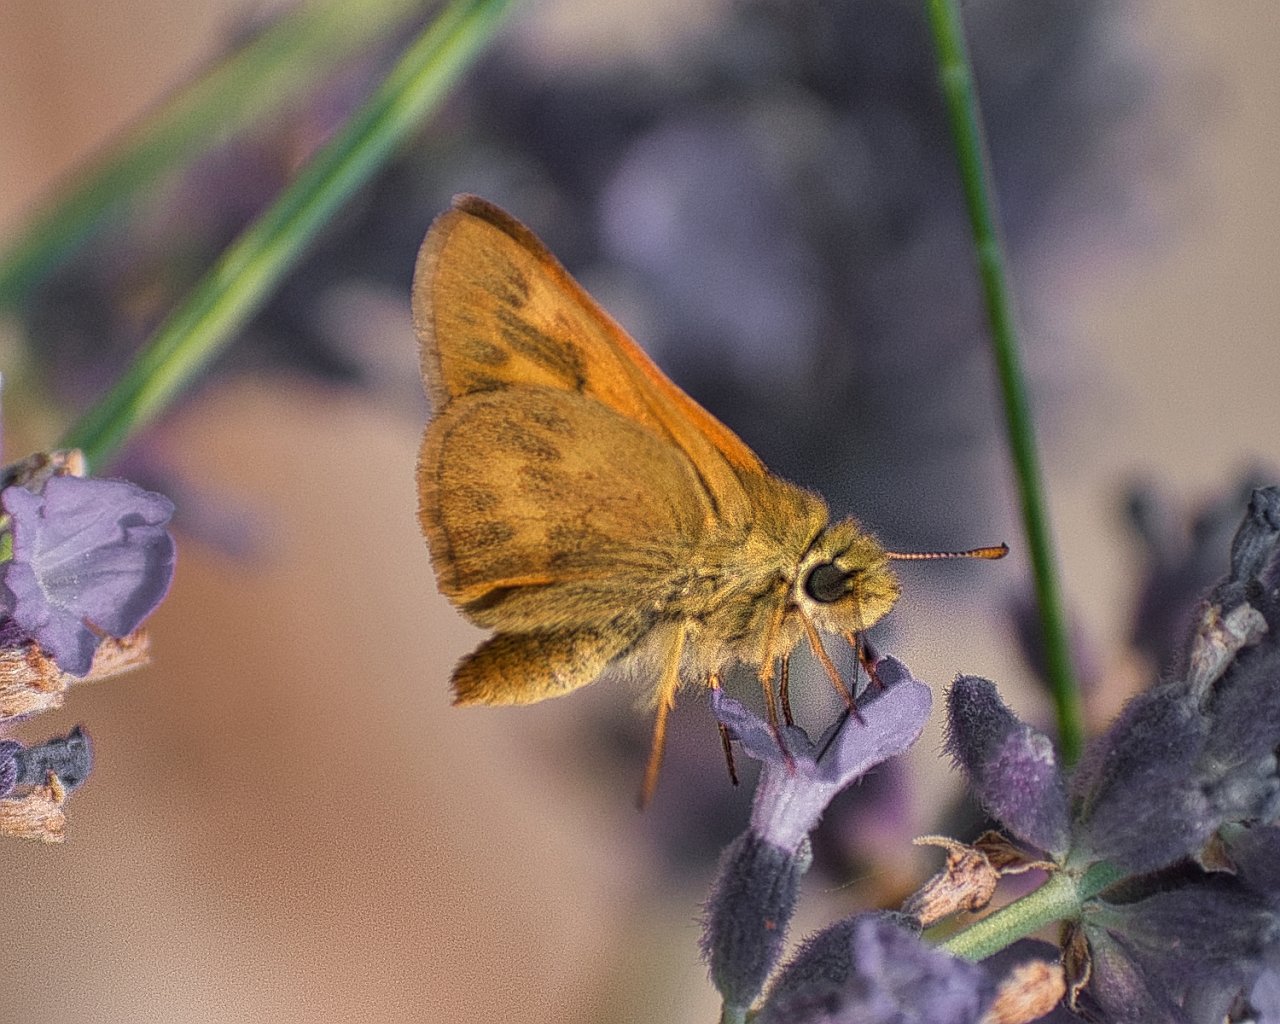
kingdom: Animalia
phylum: Arthropoda
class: Insecta
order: Lepidoptera
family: Hesperiidae
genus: Ochlodes
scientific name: Ochlodes sylvanoides
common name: Woodland Skipper
